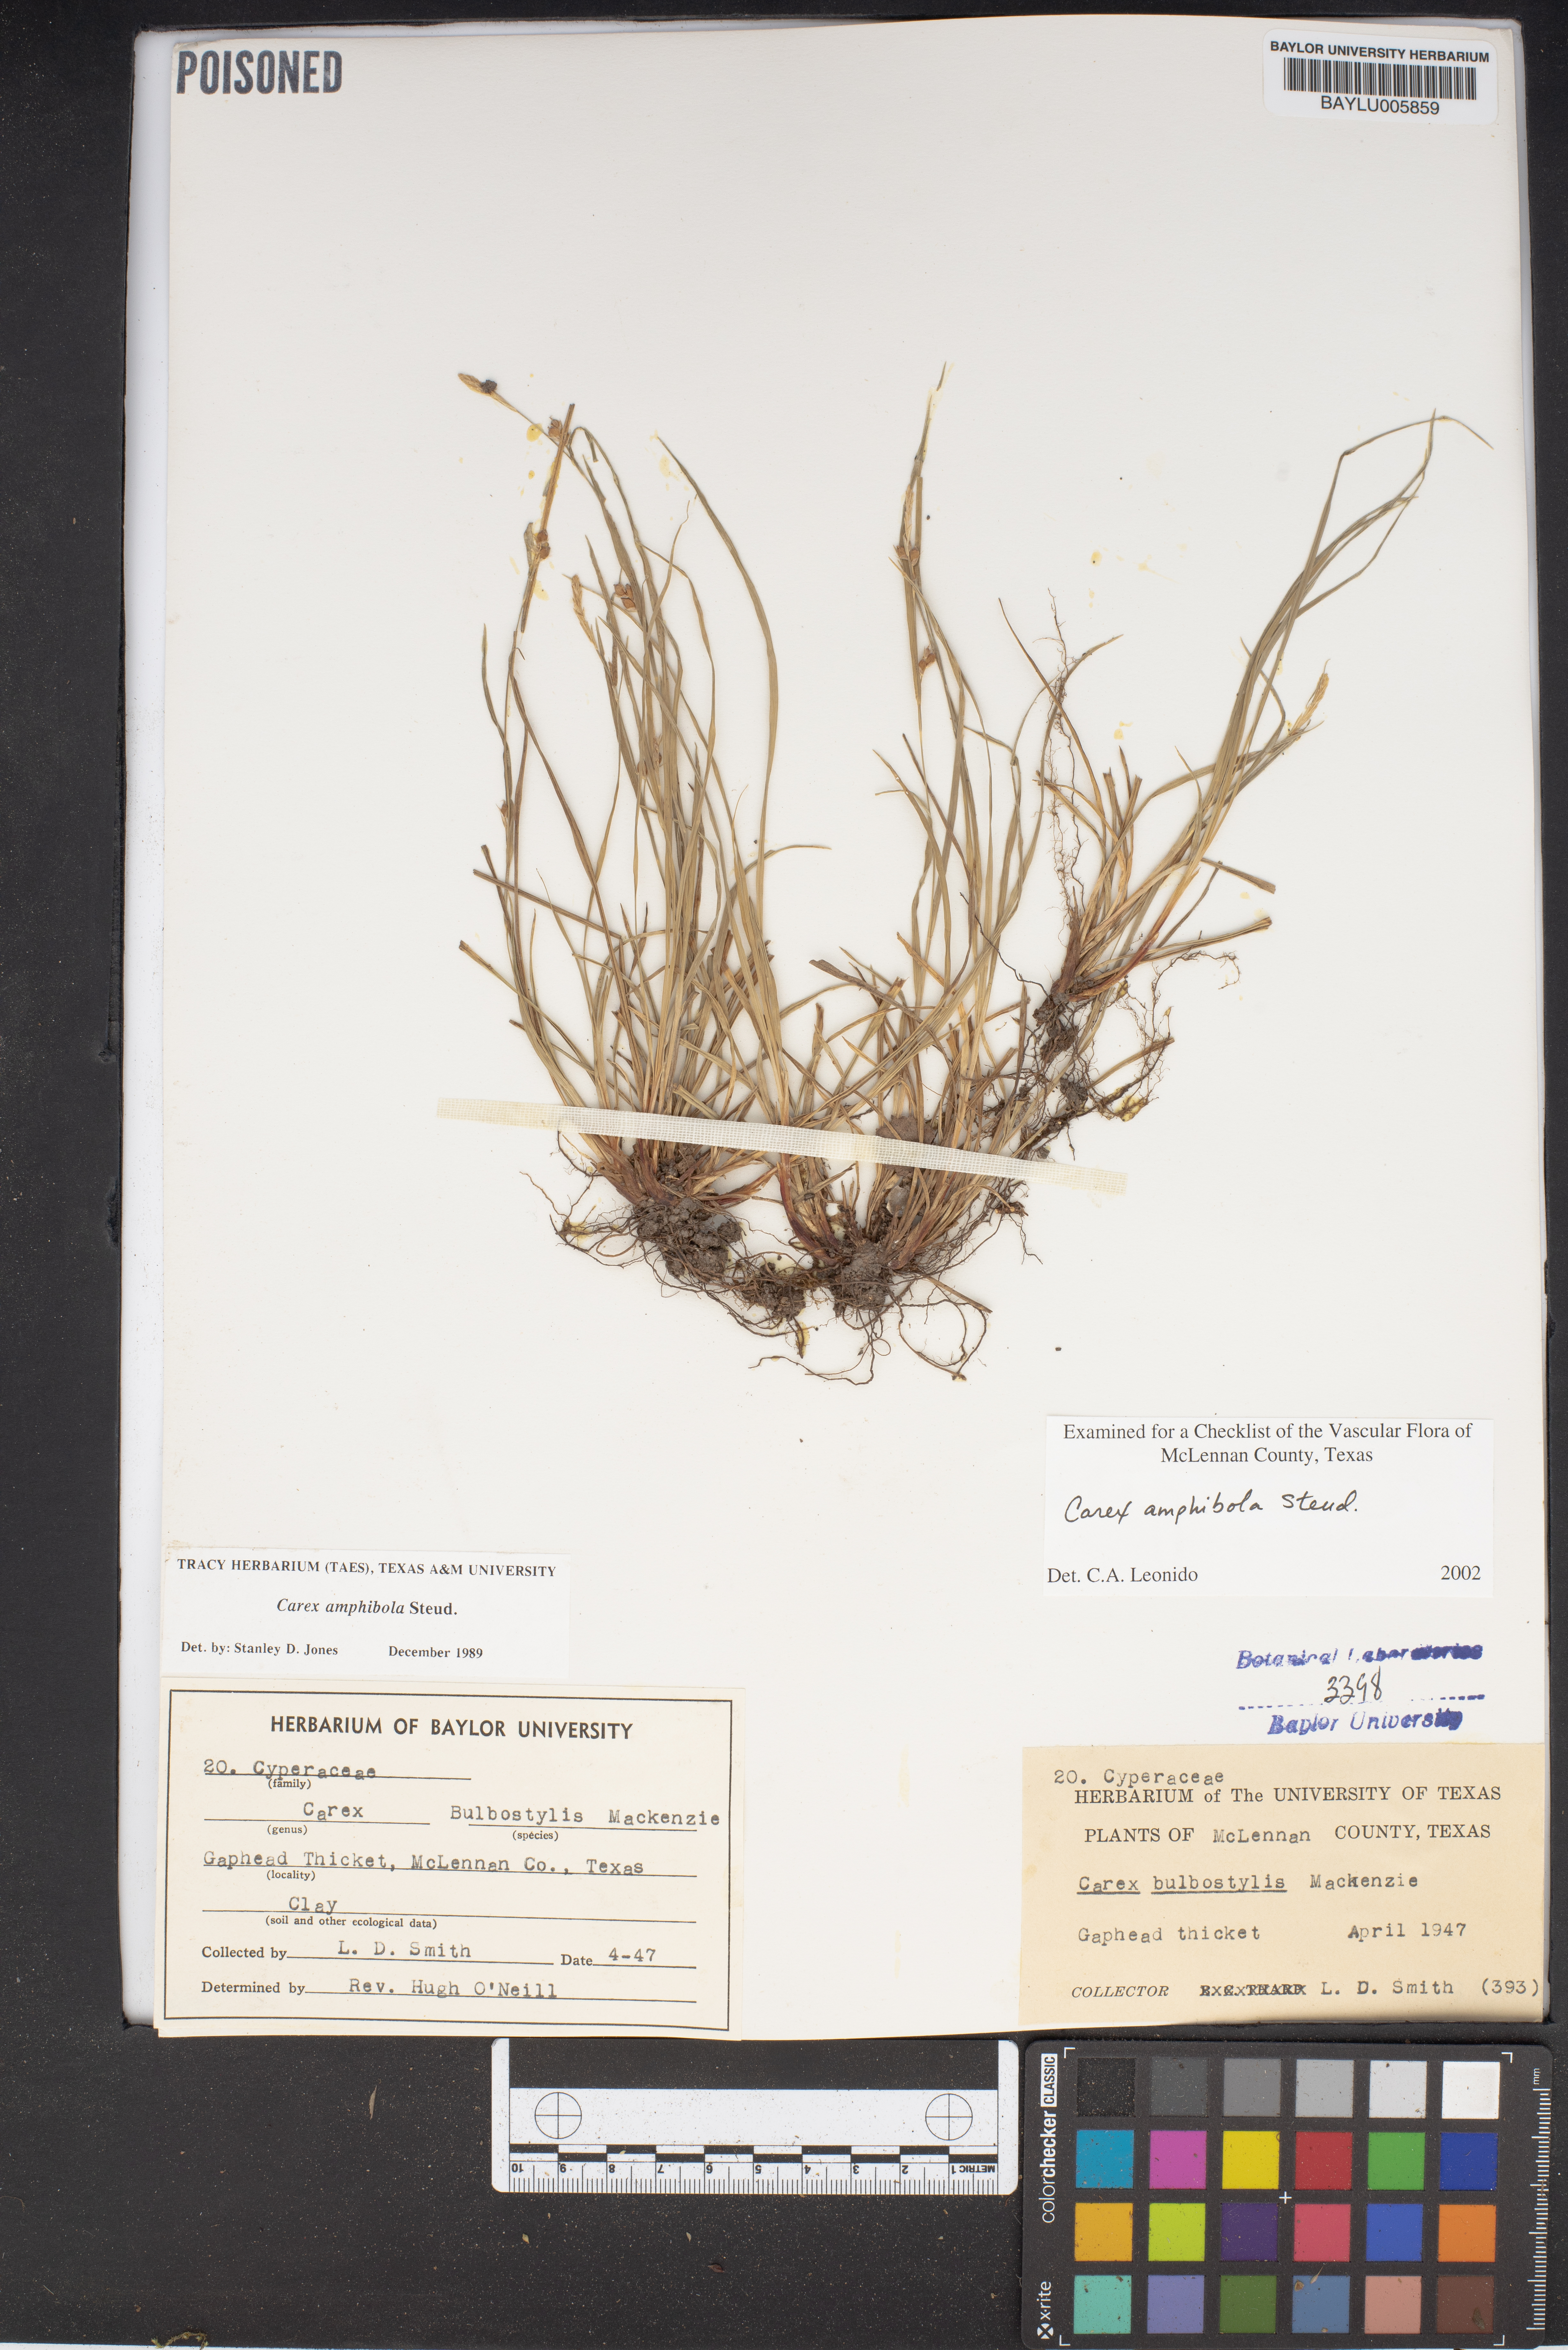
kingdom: Plantae
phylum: Tracheophyta
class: Liliopsida
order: Poales
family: Cyperaceae
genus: Carex
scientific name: Carex amphibola
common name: Amphibious sedge
